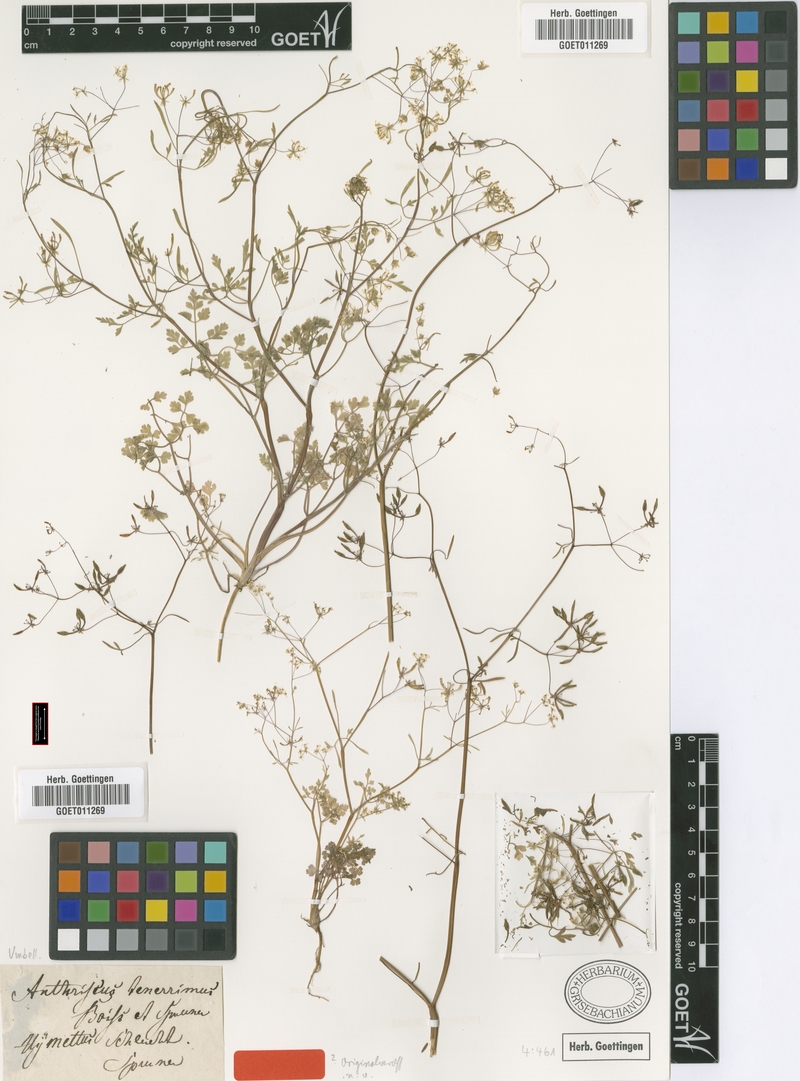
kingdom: Plantae
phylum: Tracheophyta
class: Magnoliopsida
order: Apiales
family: Apiaceae
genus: Anthriscus
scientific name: Anthriscus tenerrima
